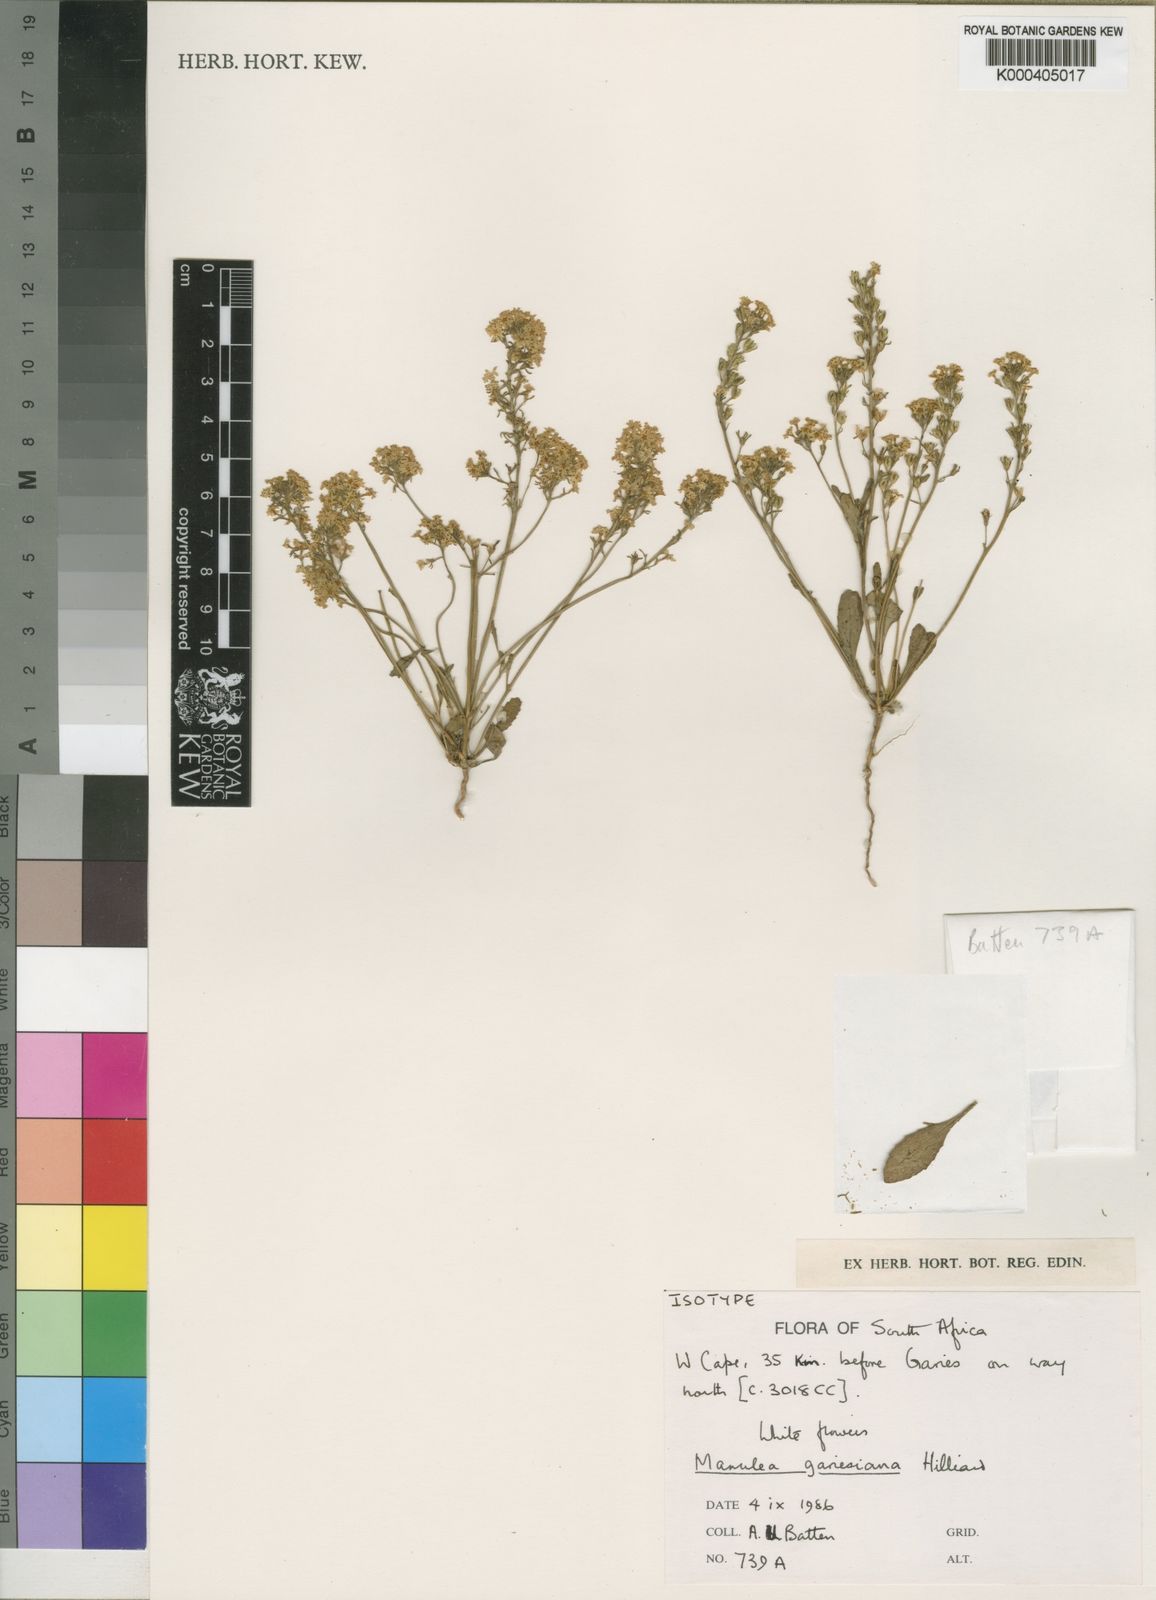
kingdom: Plantae
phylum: Tracheophyta
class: Magnoliopsida
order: Lamiales
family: Scrophulariaceae
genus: Manulea
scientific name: Manulea gariepina
